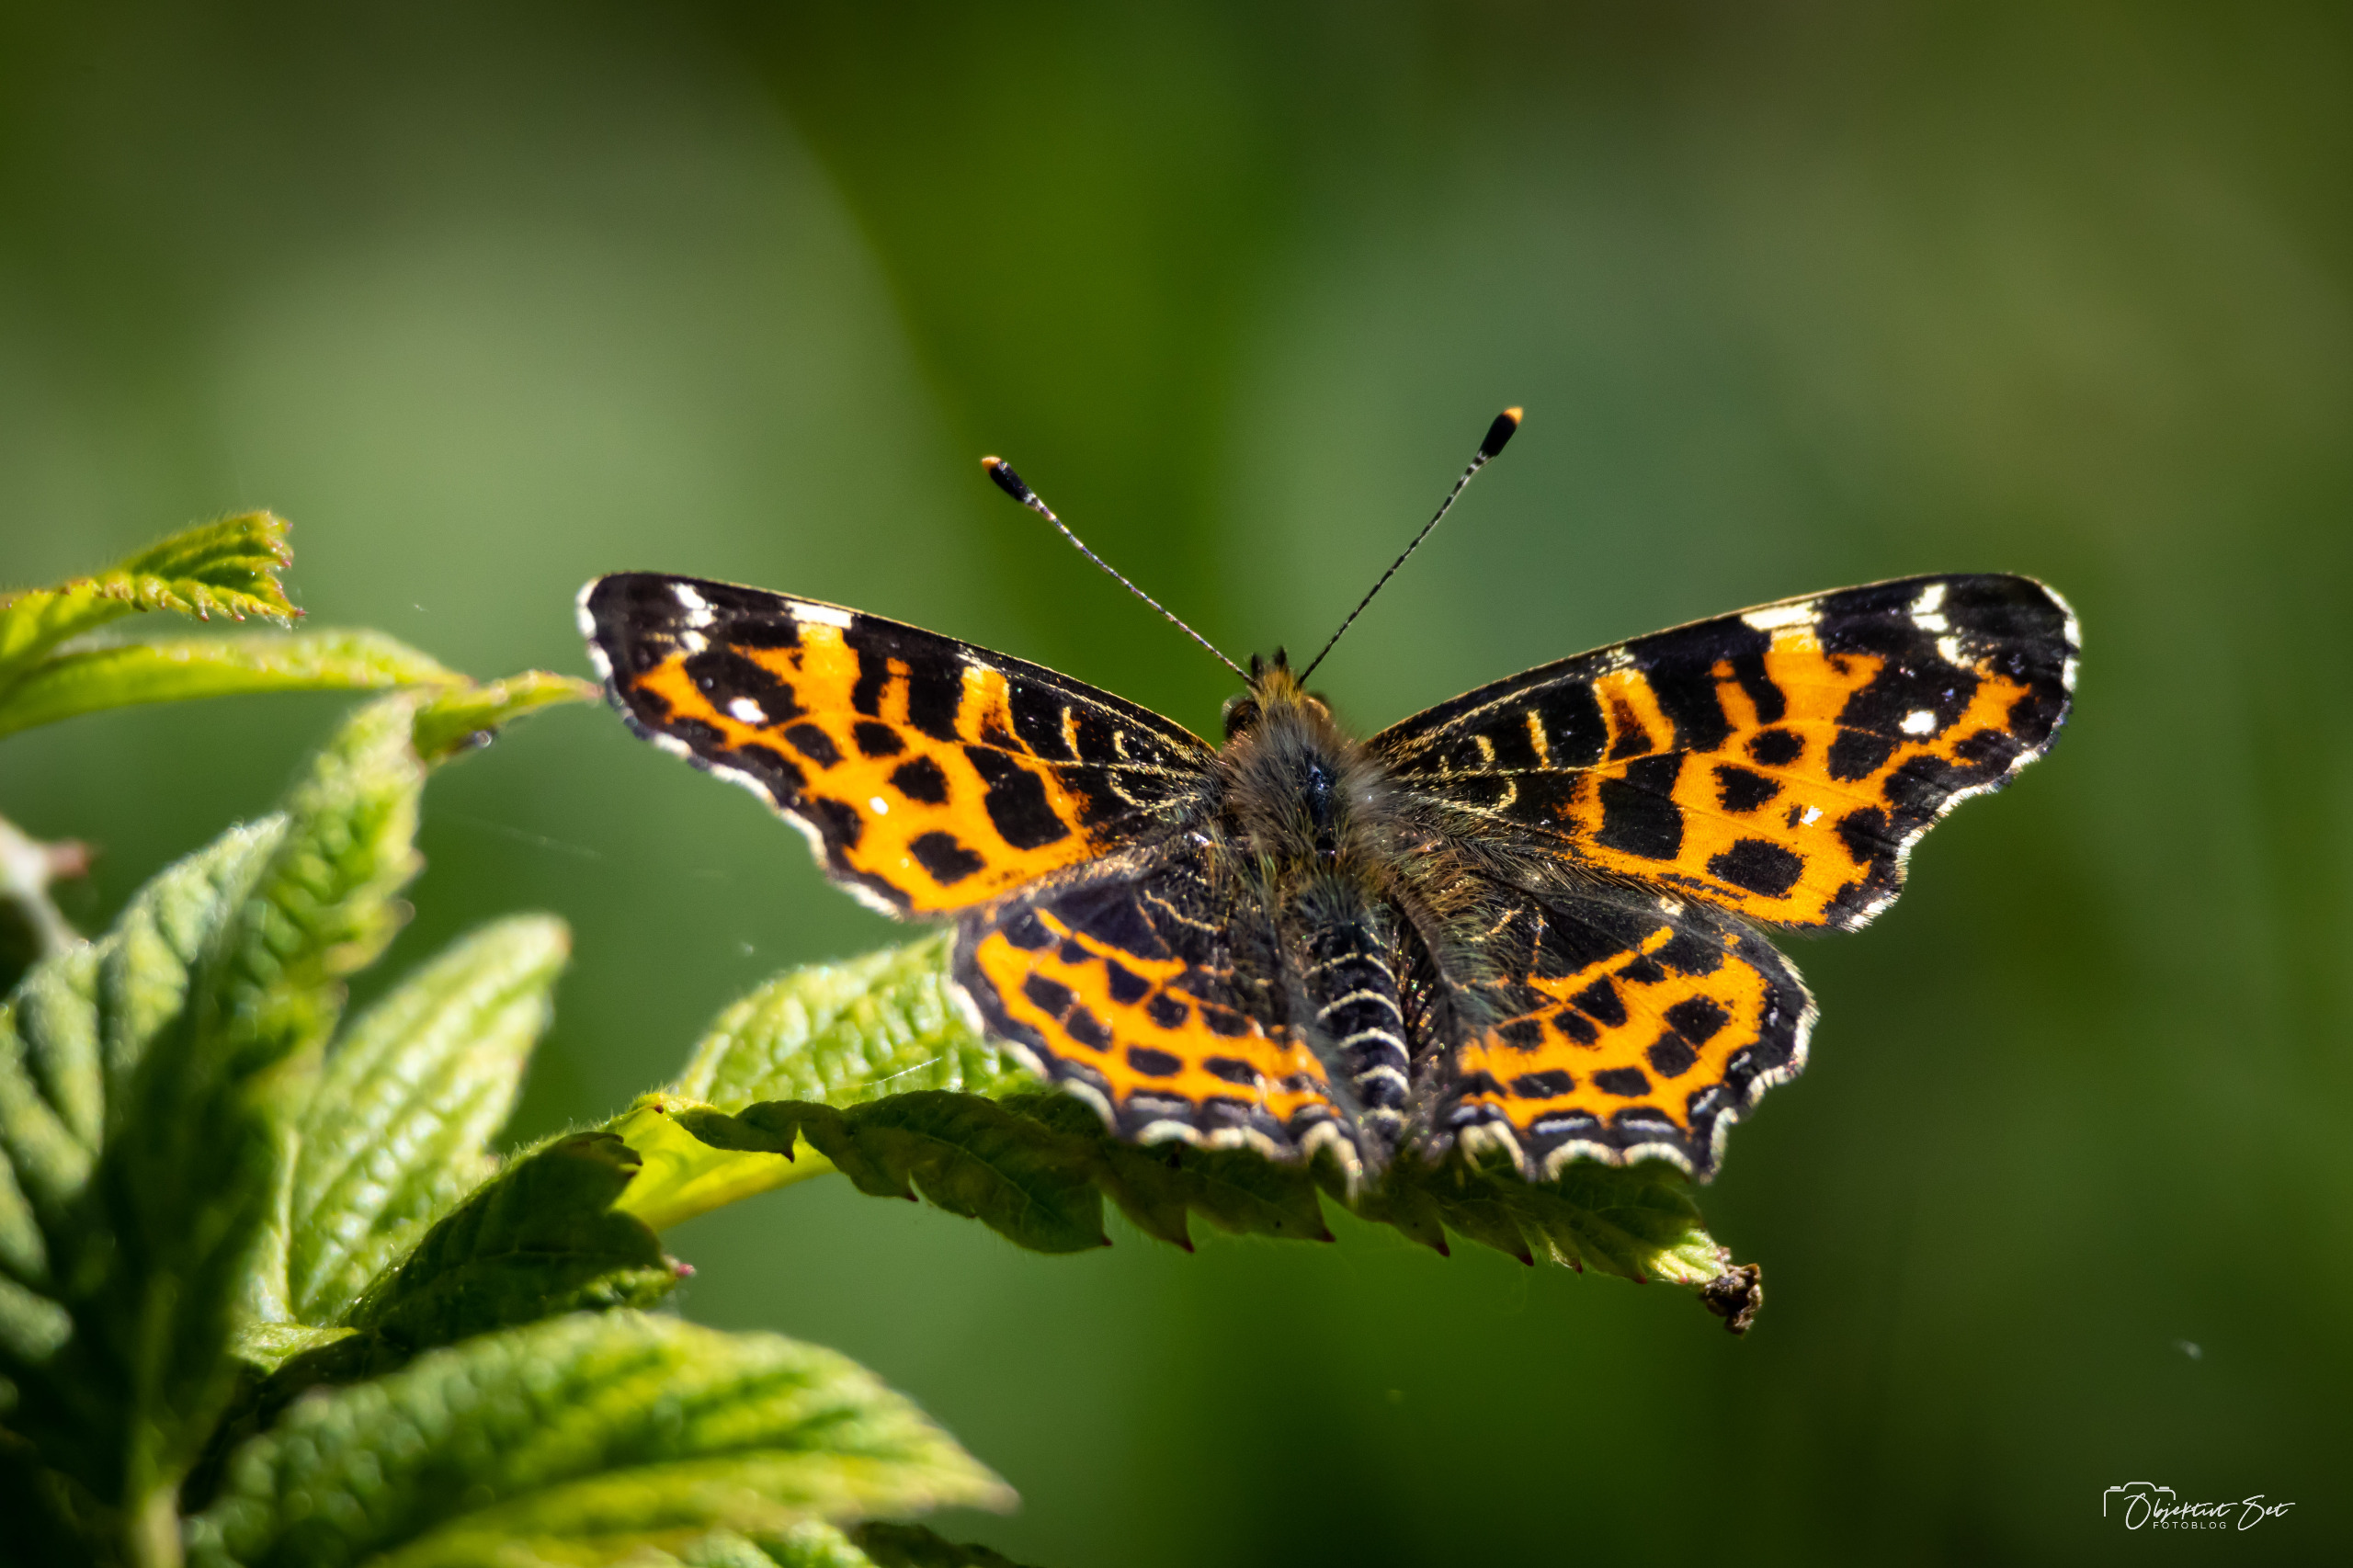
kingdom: Animalia
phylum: Arthropoda
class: Insecta
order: Lepidoptera
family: Nymphalidae
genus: Araschnia
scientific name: Araschnia levana
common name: Nældesommerfugl
